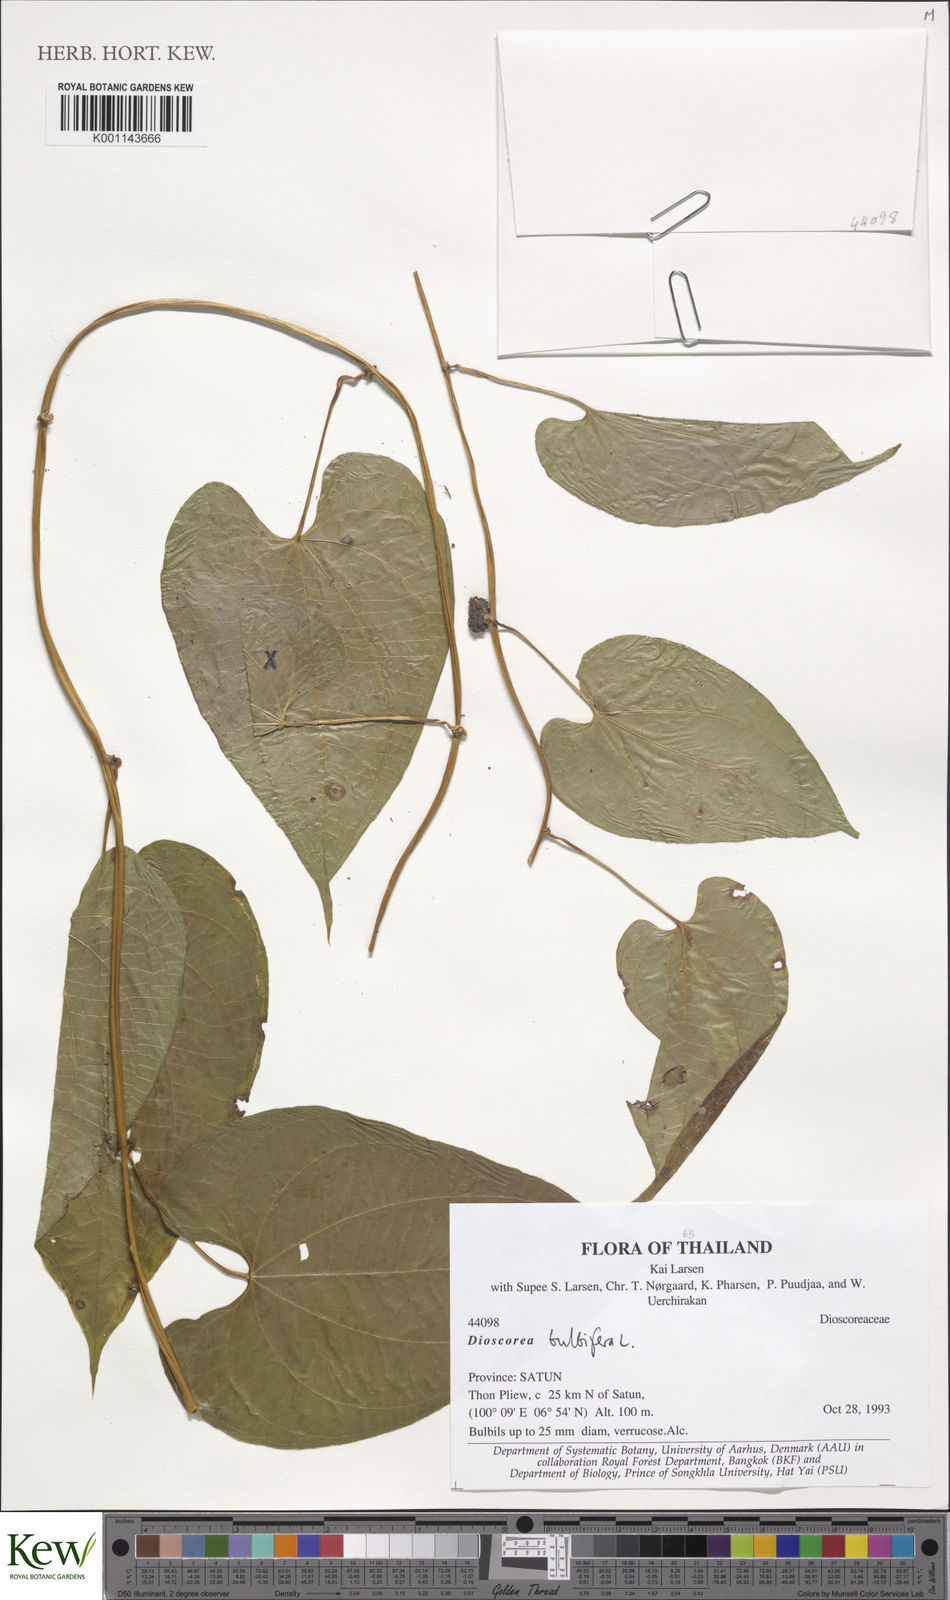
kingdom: Plantae
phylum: Tracheophyta
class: Liliopsida
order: Dioscoreales
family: Dioscoreaceae
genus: Dioscorea
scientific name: Dioscorea bulbifera
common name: Air yam
